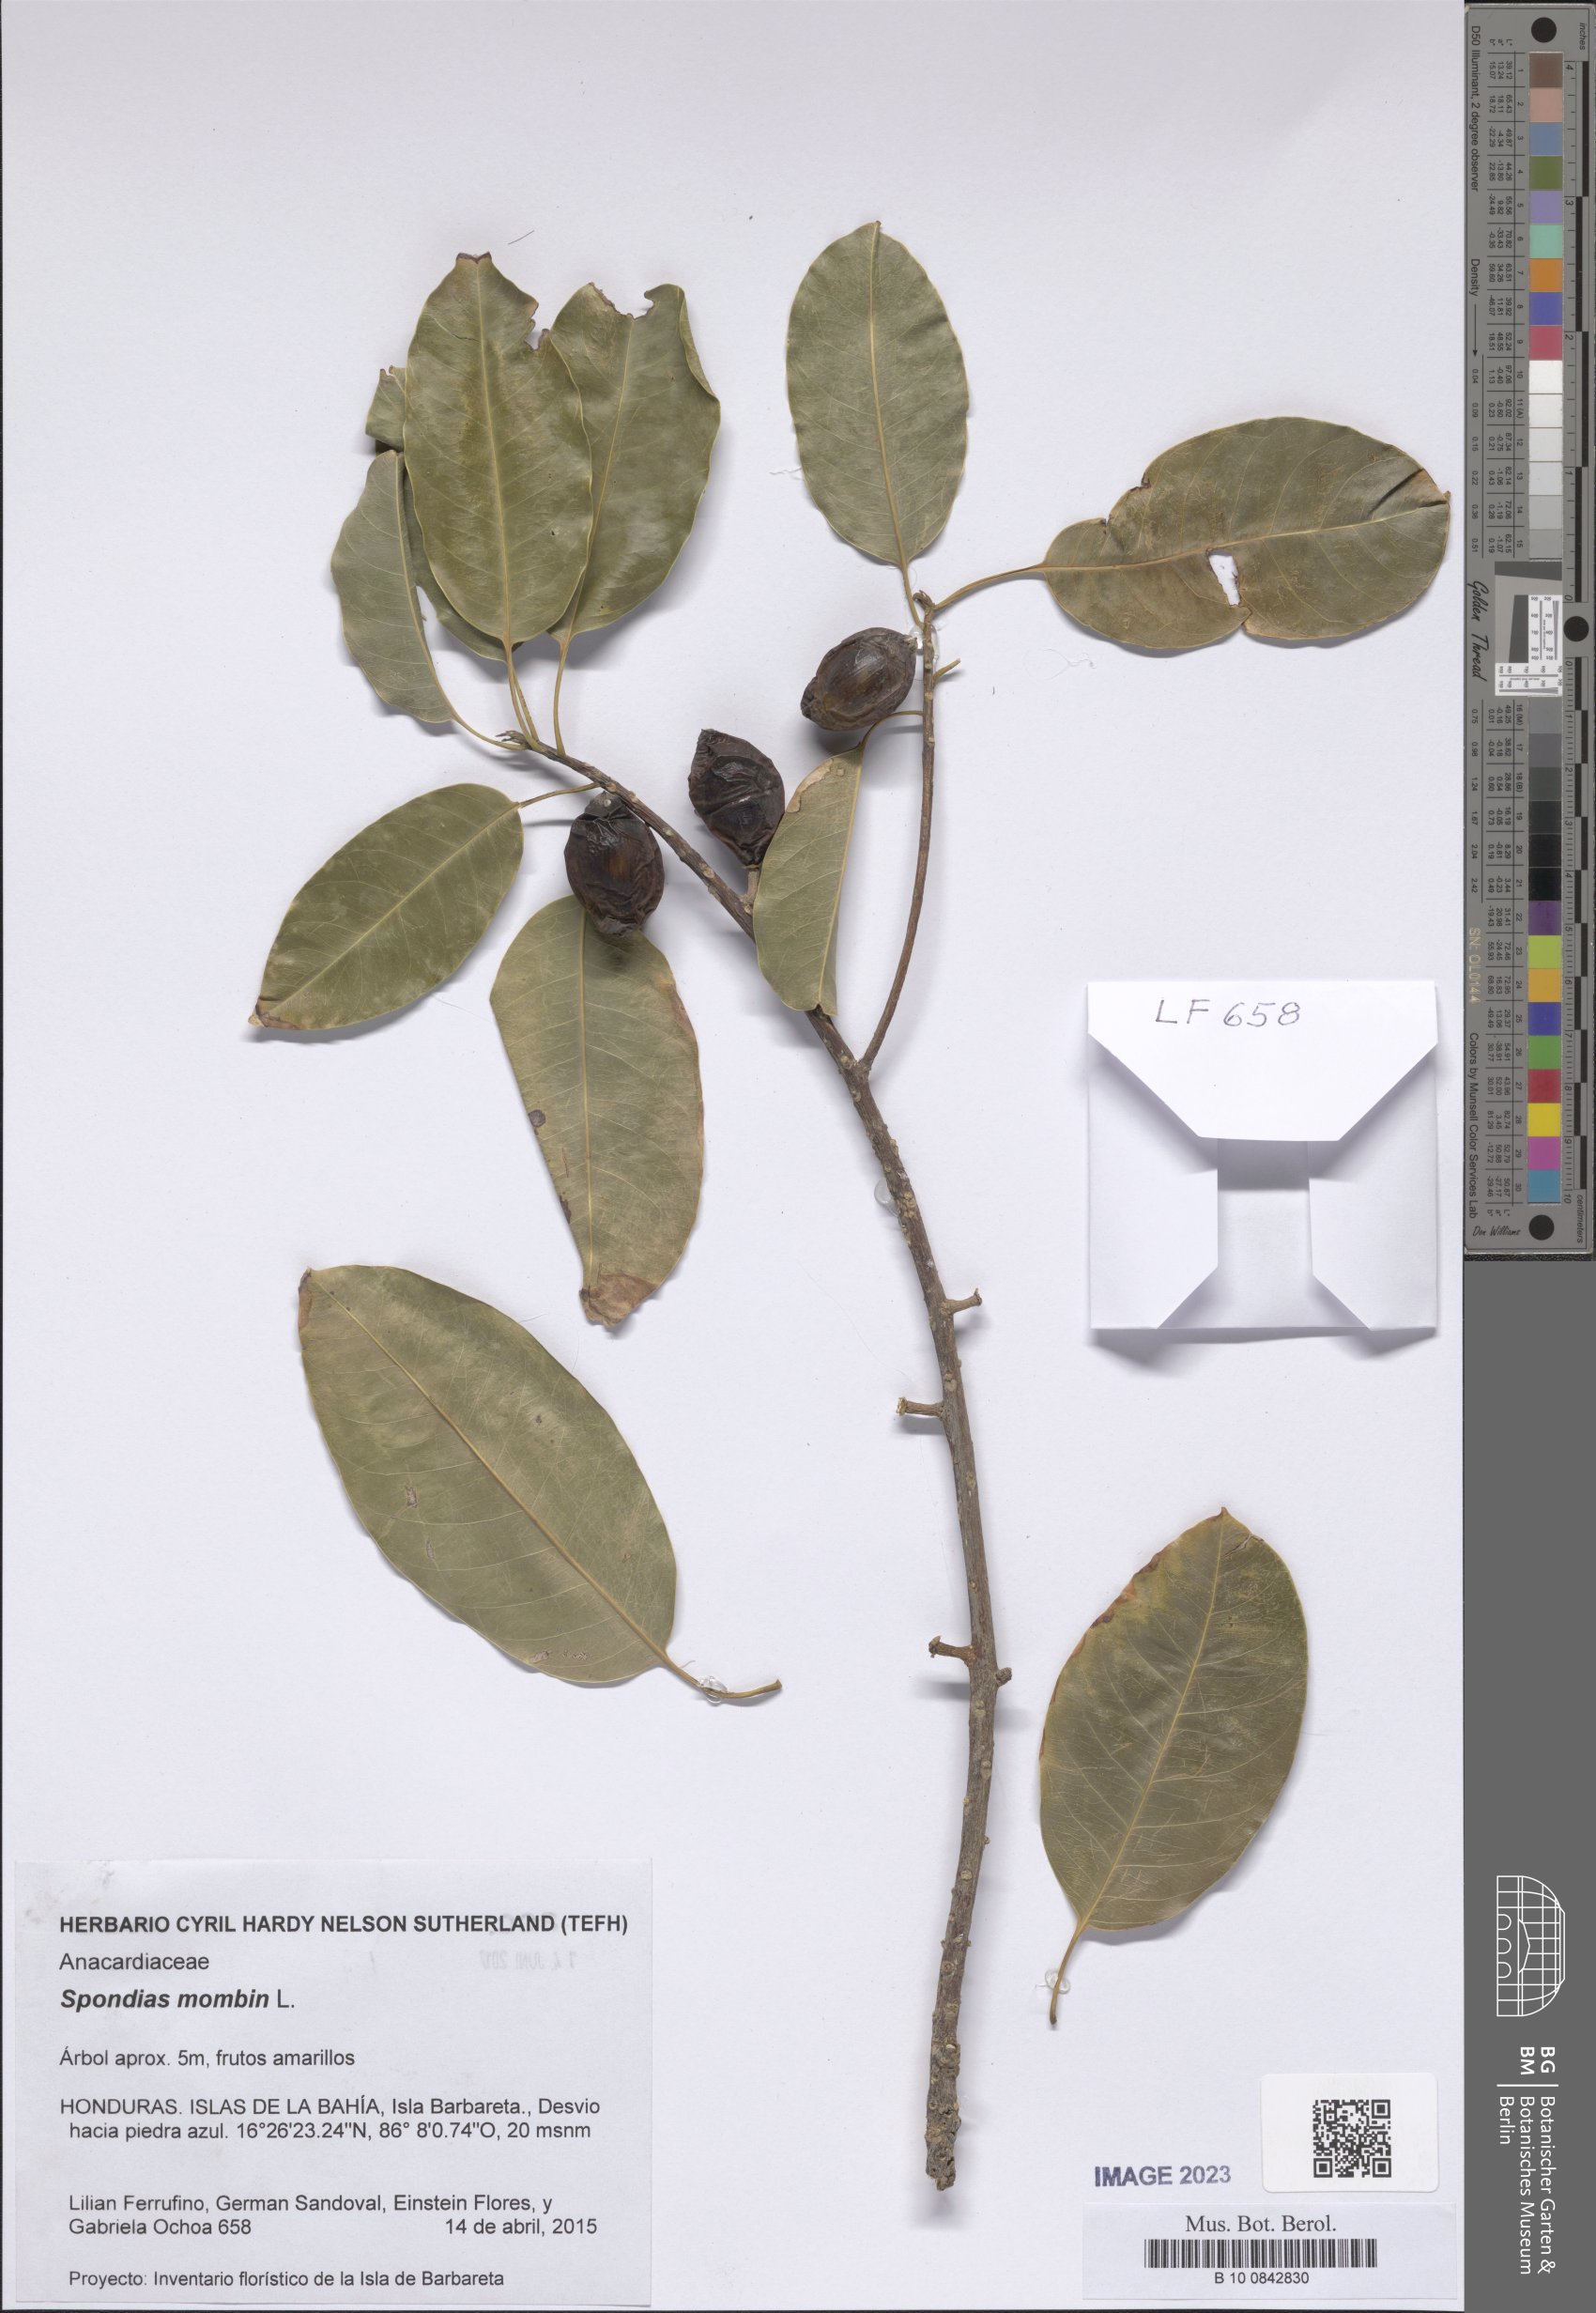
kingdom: Plantae
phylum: Tracheophyta
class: Magnoliopsida
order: Sapindales
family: Anacardiaceae
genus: Spondias
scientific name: Spondias mombin
